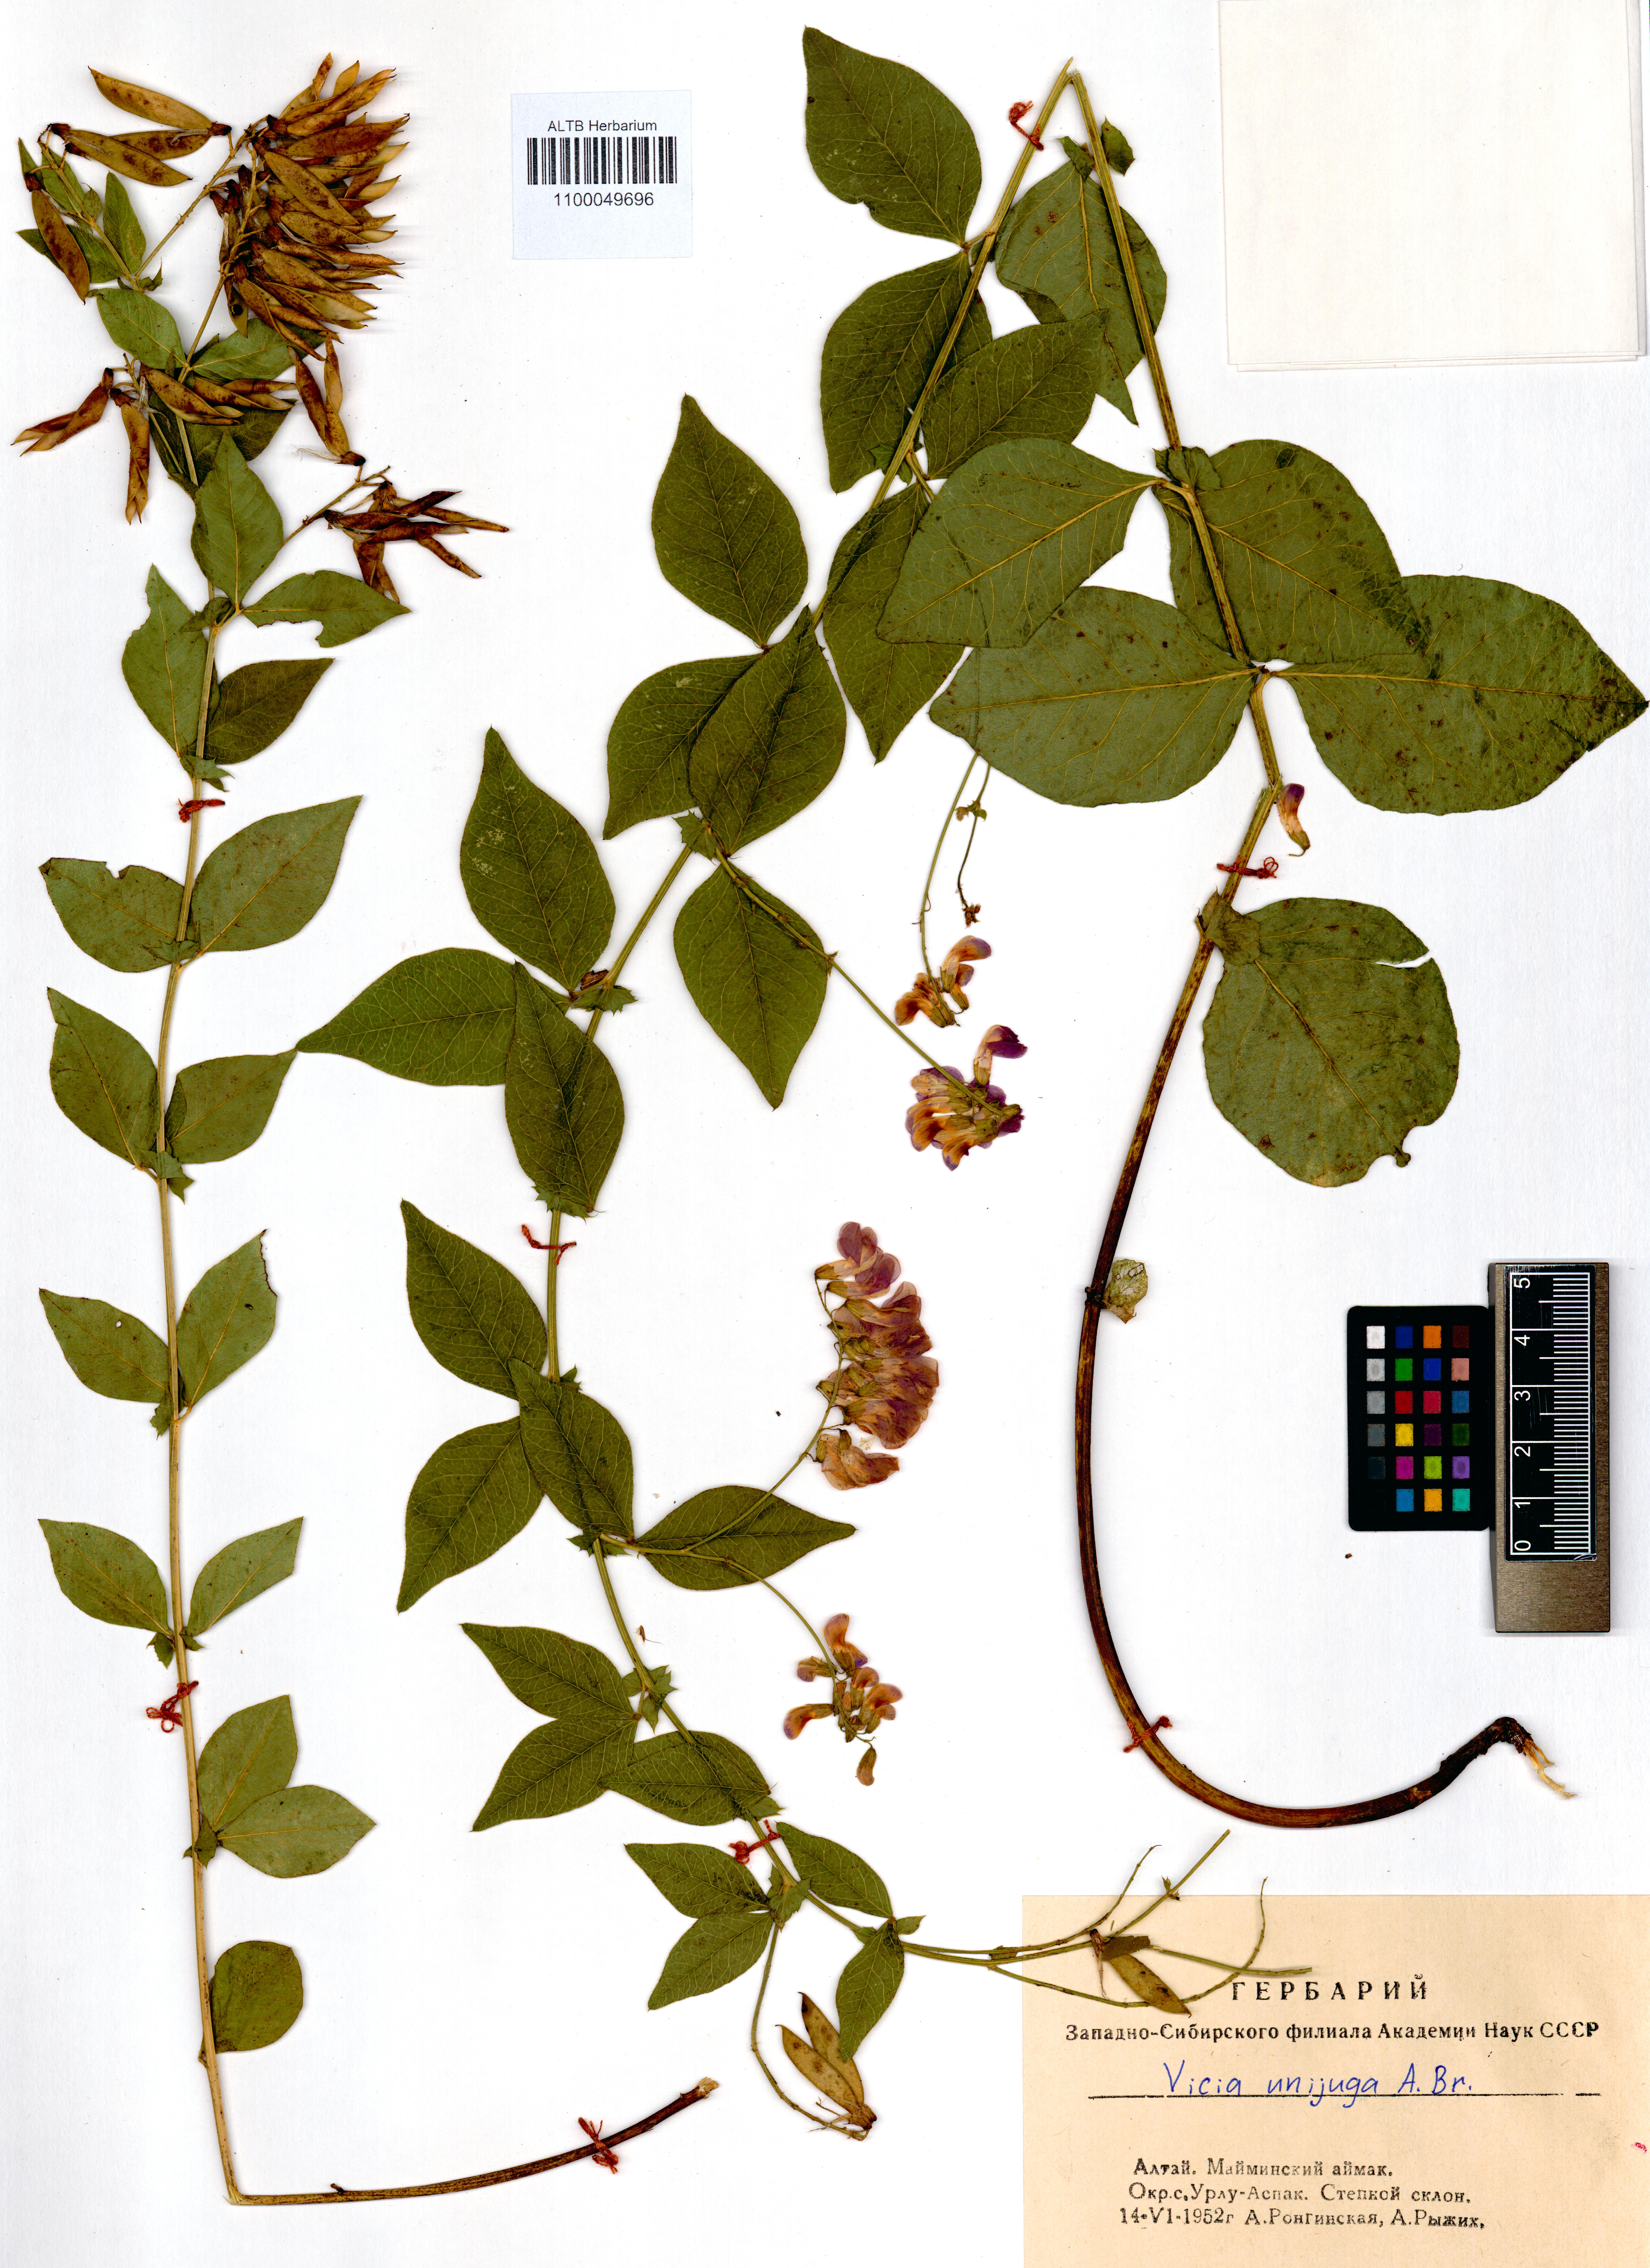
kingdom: Plantae
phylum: Tracheophyta
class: Magnoliopsida
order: Fabales
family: Fabaceae
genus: Vicia
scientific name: Vicia unijuga
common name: Two-leaf vetch
